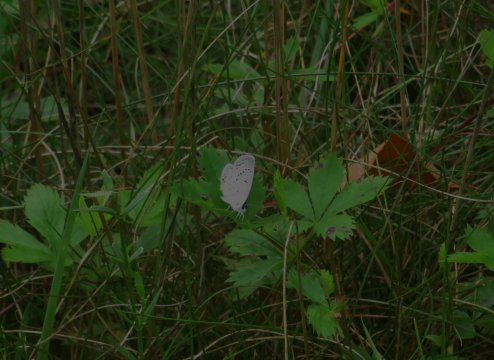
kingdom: Animalia
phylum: Arthropoda
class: Insecta
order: Lepidoptera
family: Lycaenidae
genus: Elkalyce
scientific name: Elkalyce comyntas
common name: Eastern Tailed-Blue
